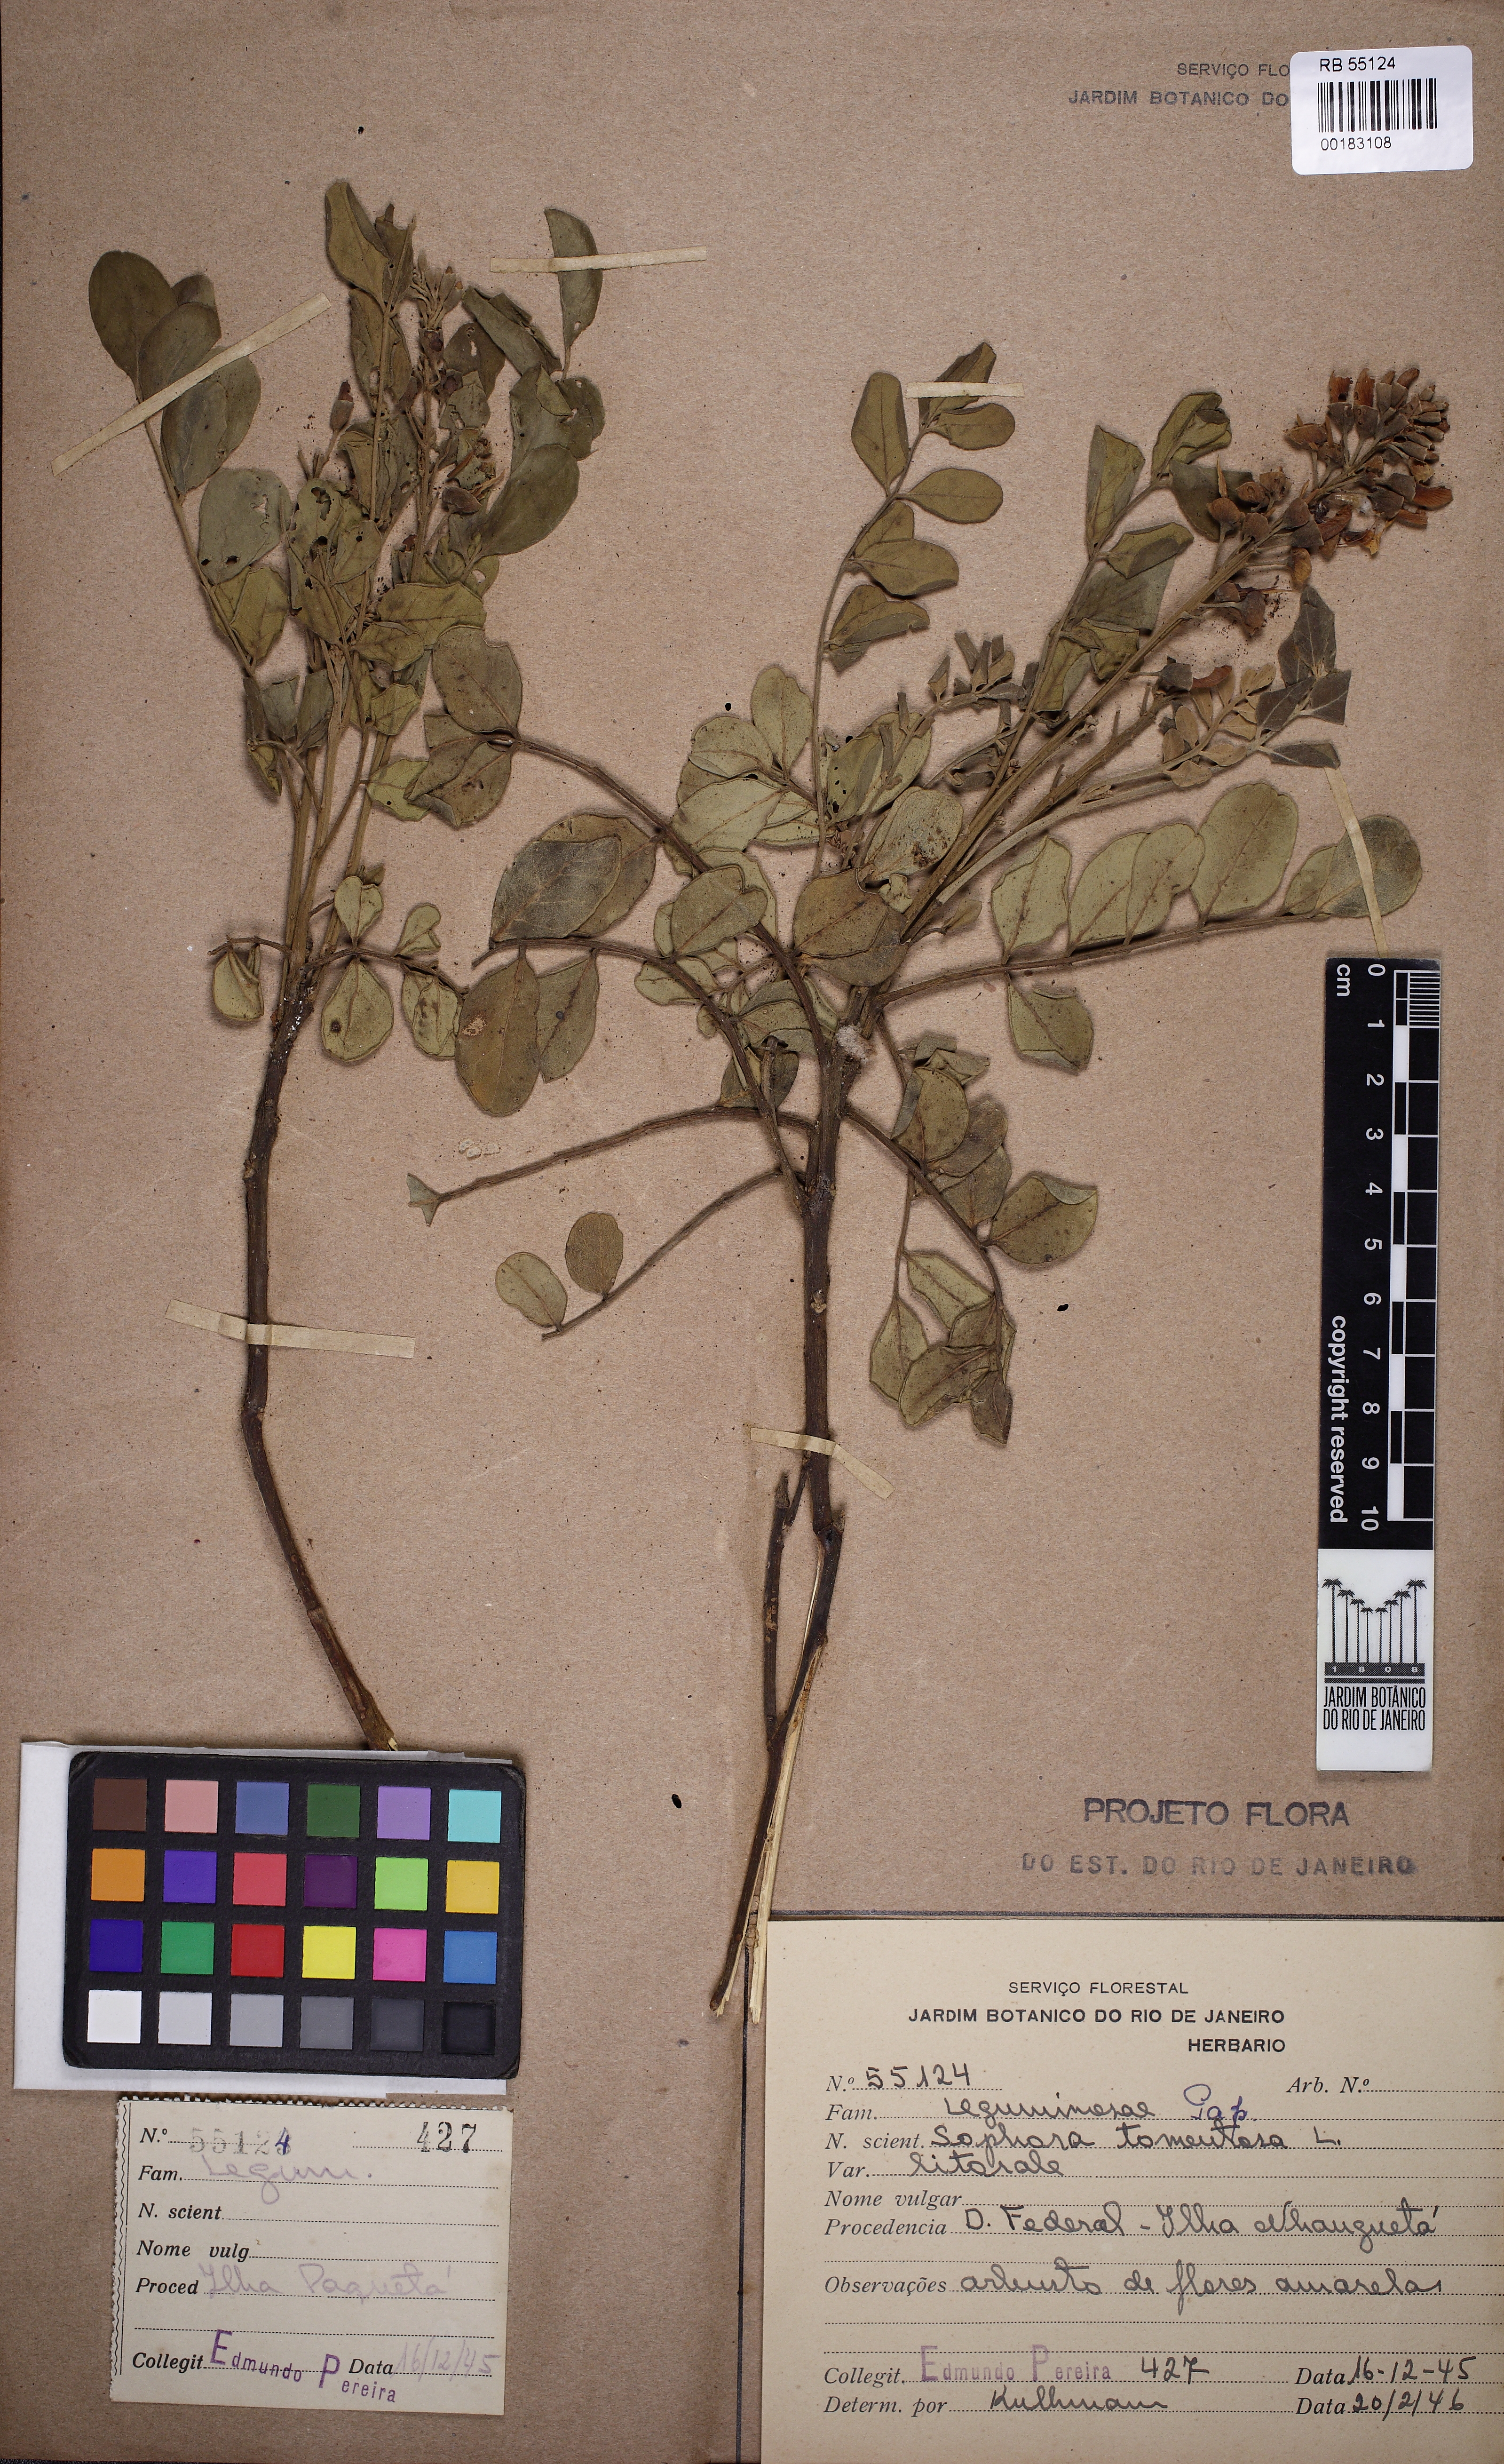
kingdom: Plantae
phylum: Tracheophyta
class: Magnoliopsida
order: Fabales
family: Fabaceae
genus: Sophora
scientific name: Sophora tomentosa
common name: Yellow necklacepod
